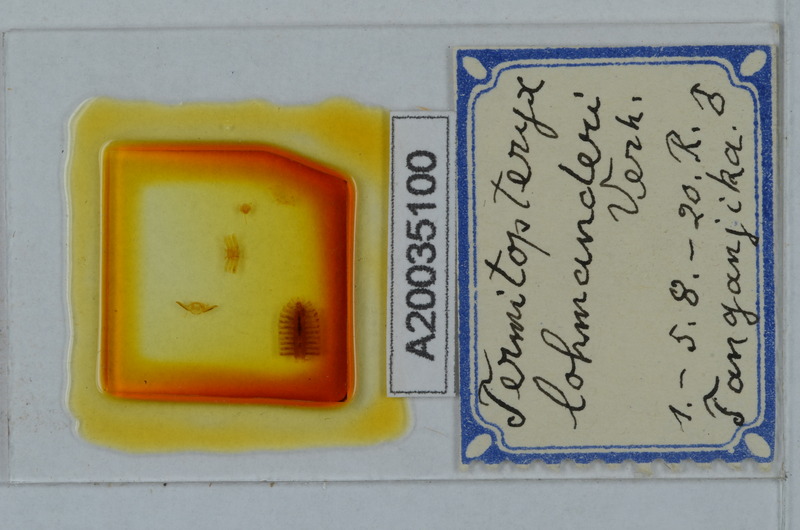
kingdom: Animalia
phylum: Arthropoda
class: Diplopoda
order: Polydesmida
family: Pyrgodesmidae
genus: Termitopteryx
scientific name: Termitopteryx lohmanderi
